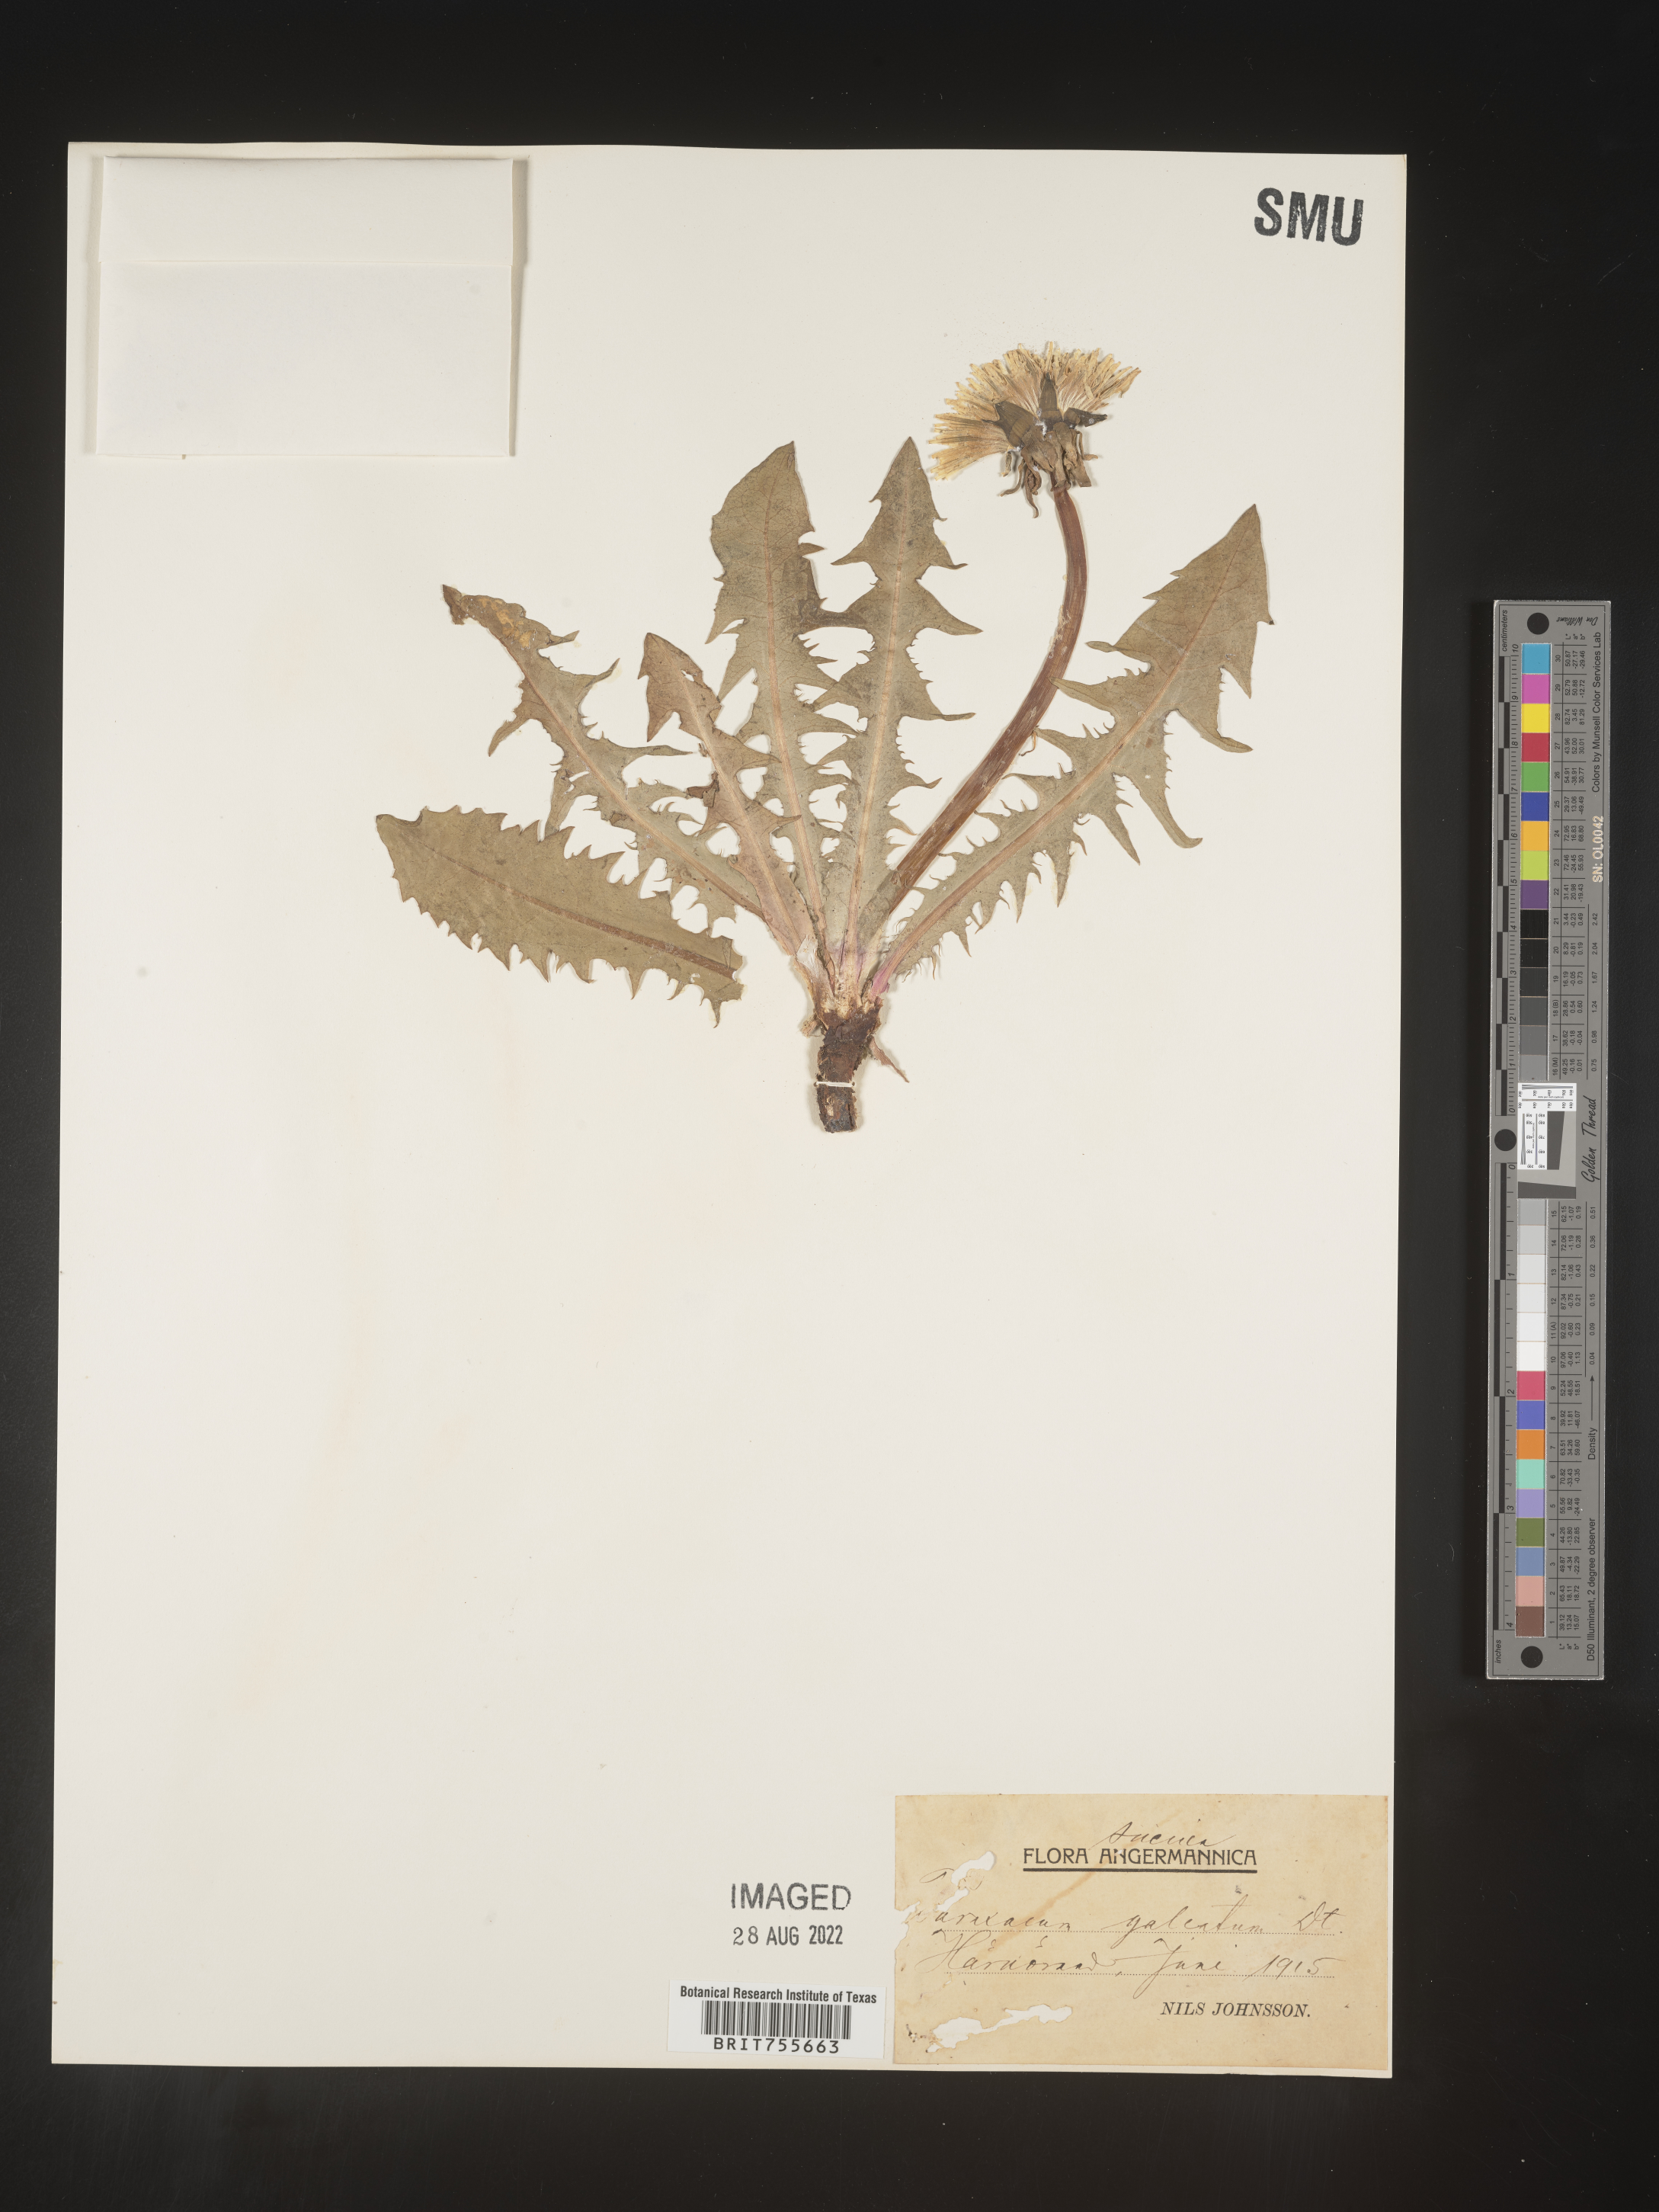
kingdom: Plantae
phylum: Tracheophyta
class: Magnoliopsida
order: Asterales
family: Asteraceae
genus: Taraxacum
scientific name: Taraxacum
